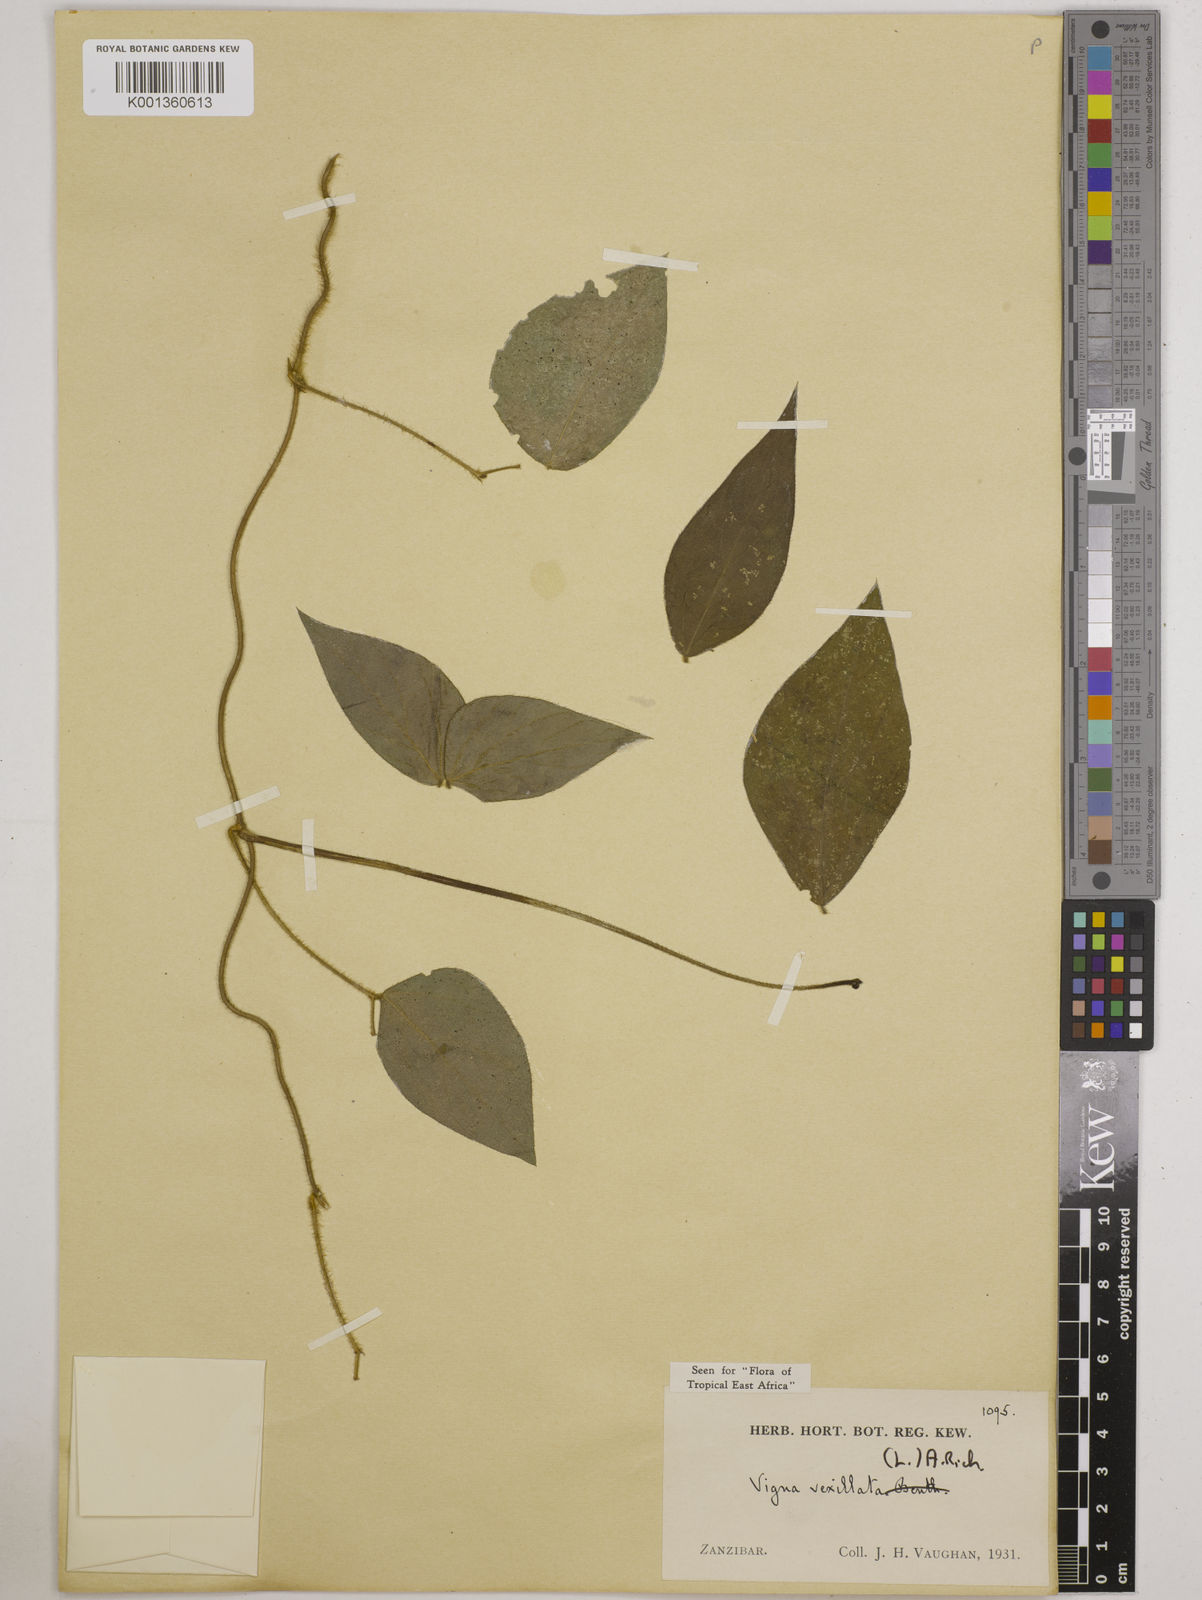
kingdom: Plantae
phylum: Tracheophyta
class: Magnoliopsida
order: Fabales
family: Fabaceae
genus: Vigna
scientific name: Vigna vexillata
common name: Zombi pea
